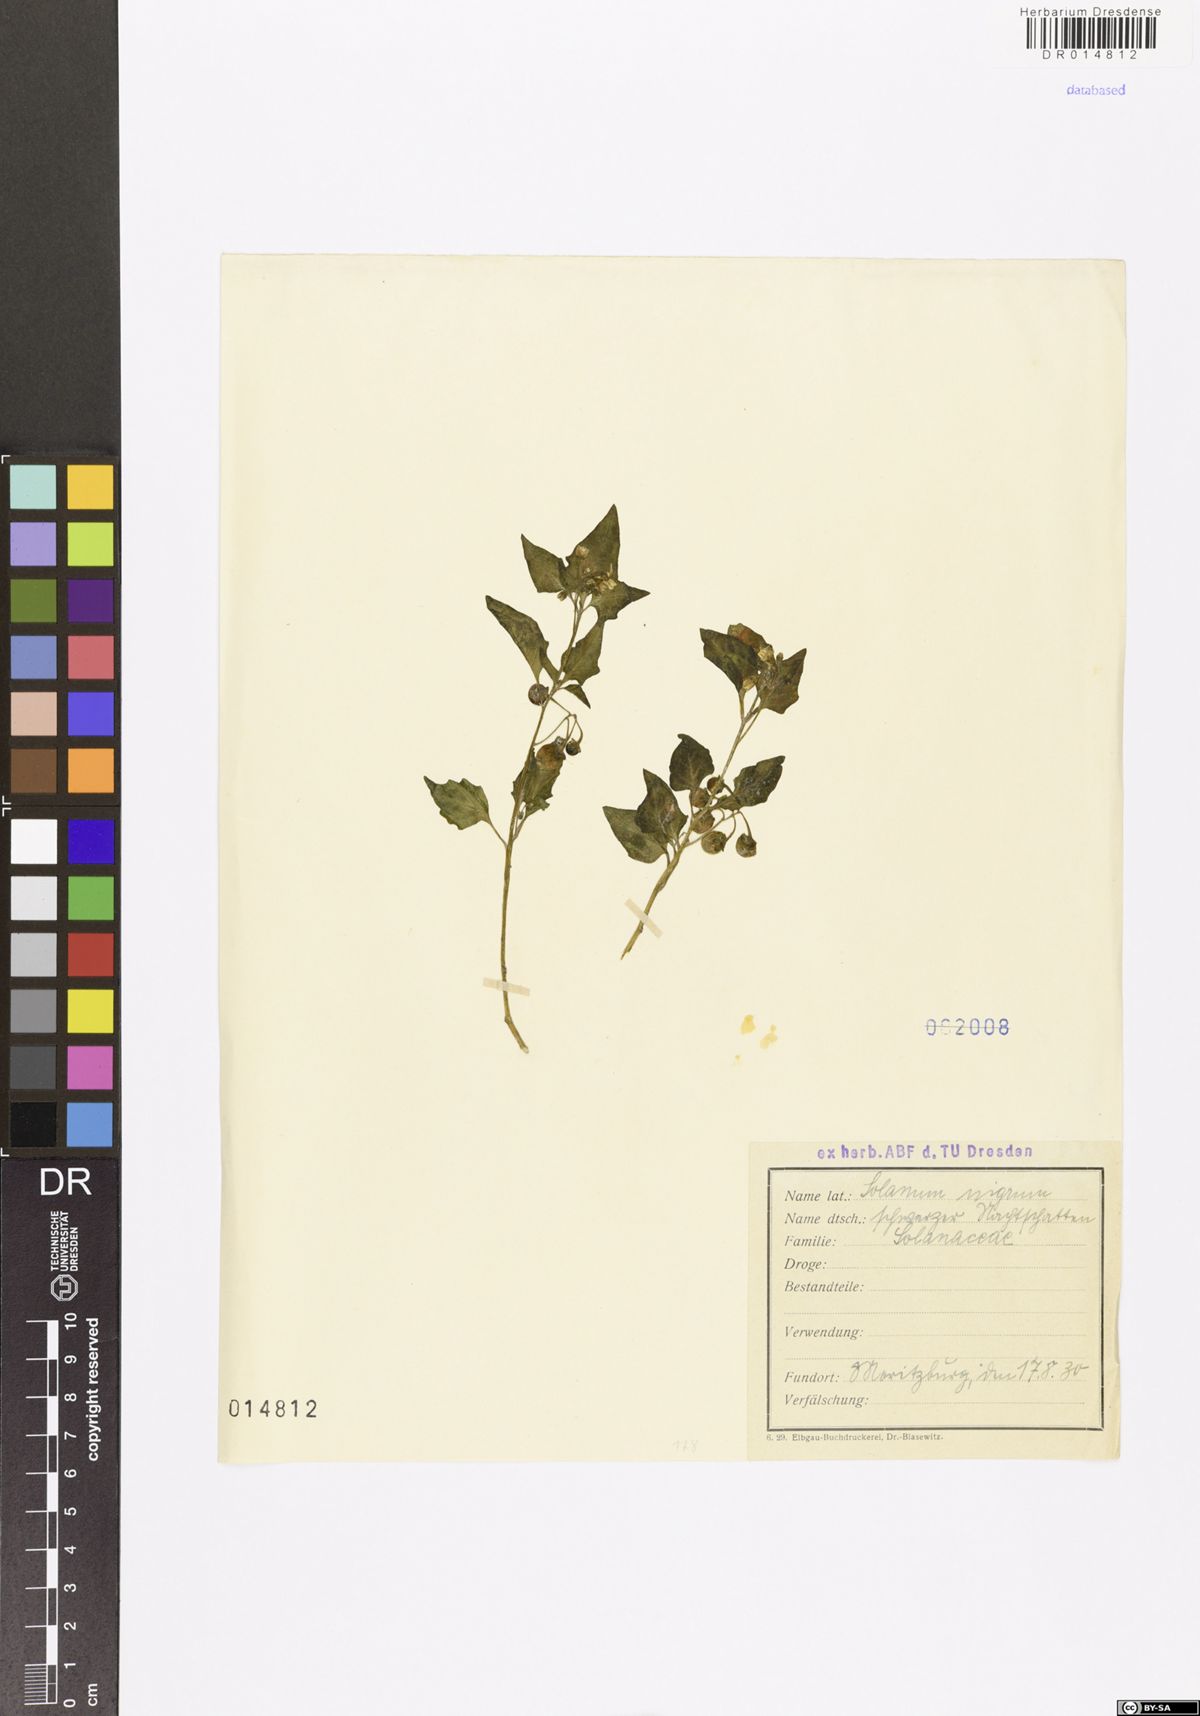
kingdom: Plantae
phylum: Tracheophyta
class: Magnoliopsida
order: Solanales
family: Solanaceae
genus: Solanum
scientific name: Solanum nigrum
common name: Black nightshade
